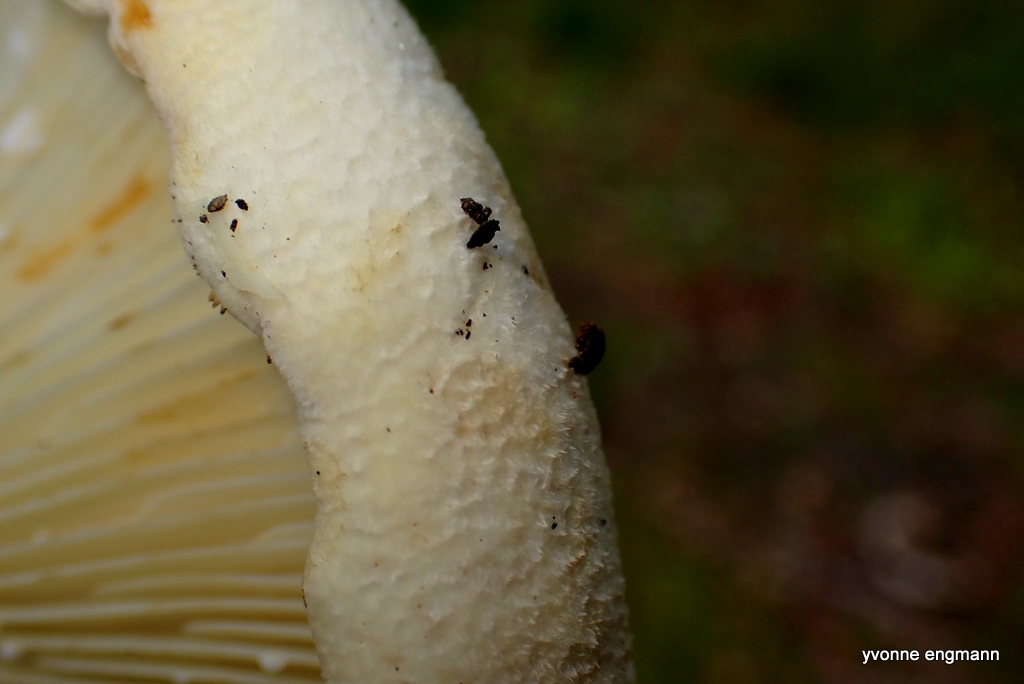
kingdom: Fungi
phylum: Basidiomycota
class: Agaricomycetes
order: Russulales
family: Russulaceae
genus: Lactifluus
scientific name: Lactifluus vellereus
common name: hvidfiltet mælkehat
